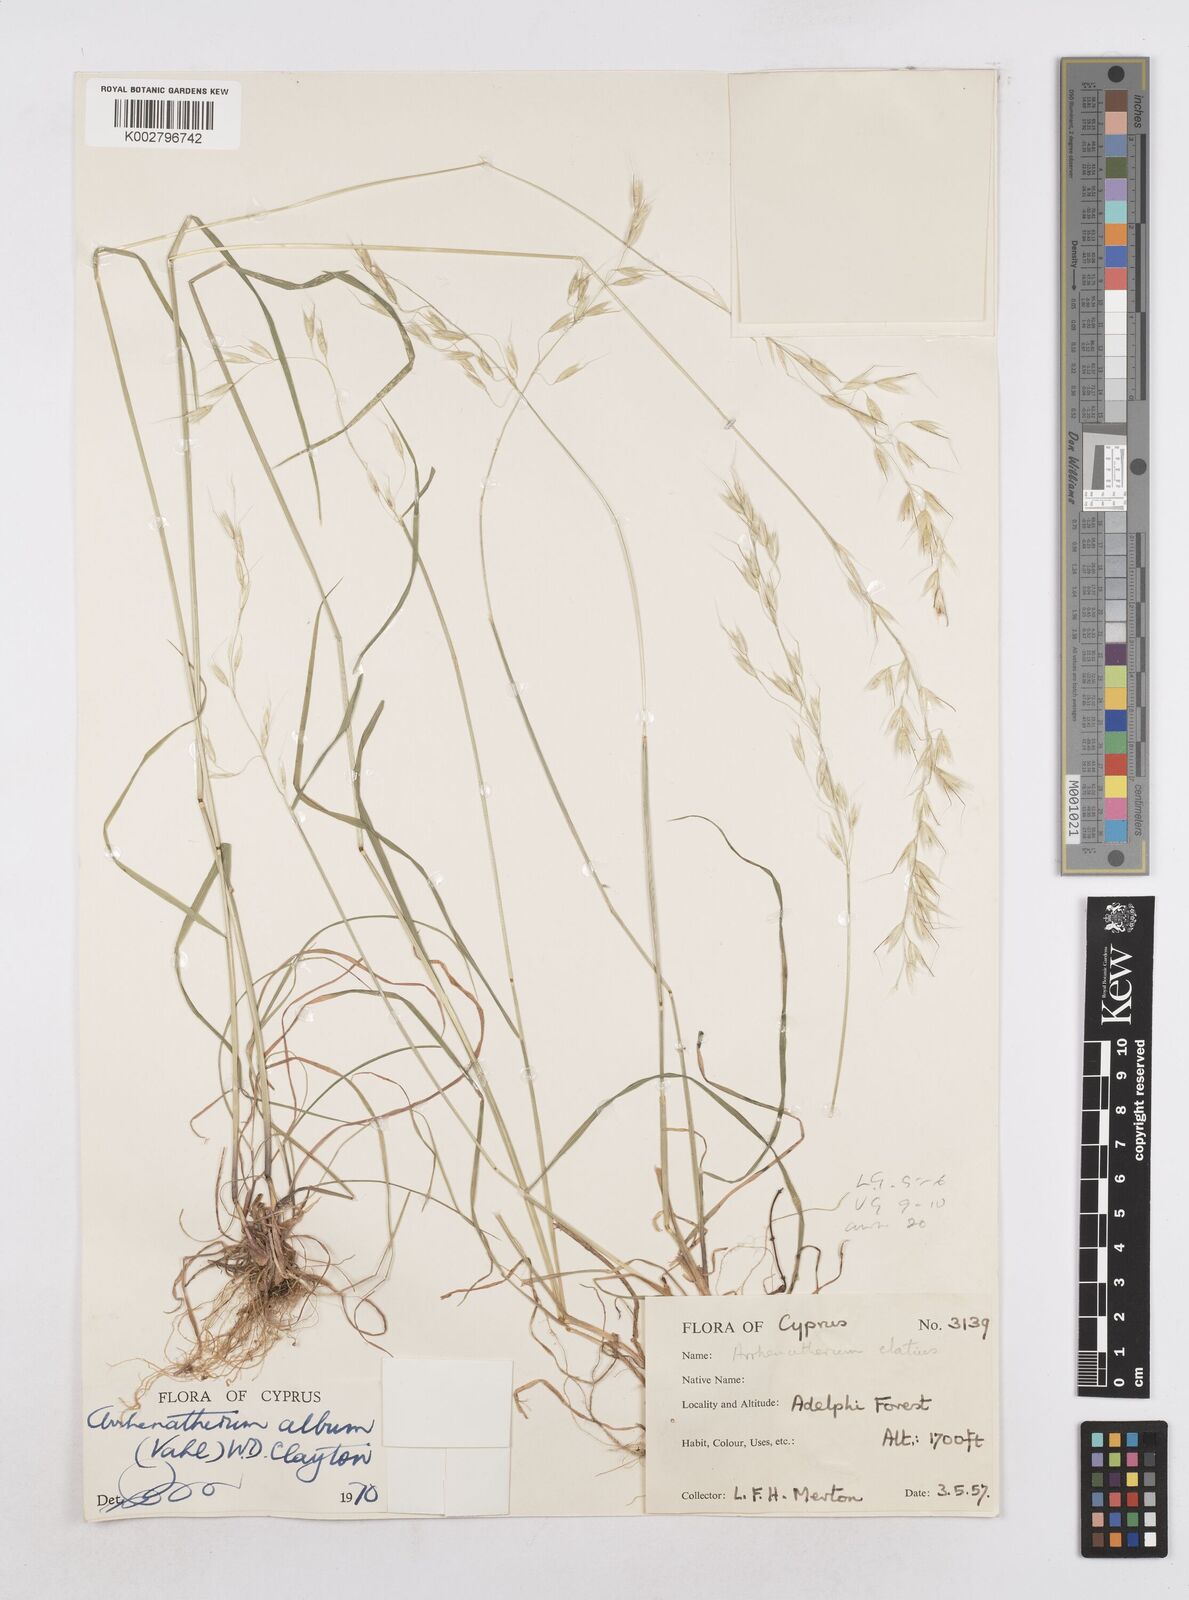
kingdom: Plantae
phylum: Tracheophyta
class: Liliopsida
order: Poales
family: Poaceae
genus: Arrhenatherum
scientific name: Arrhenatherum album
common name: Tall oat grass
